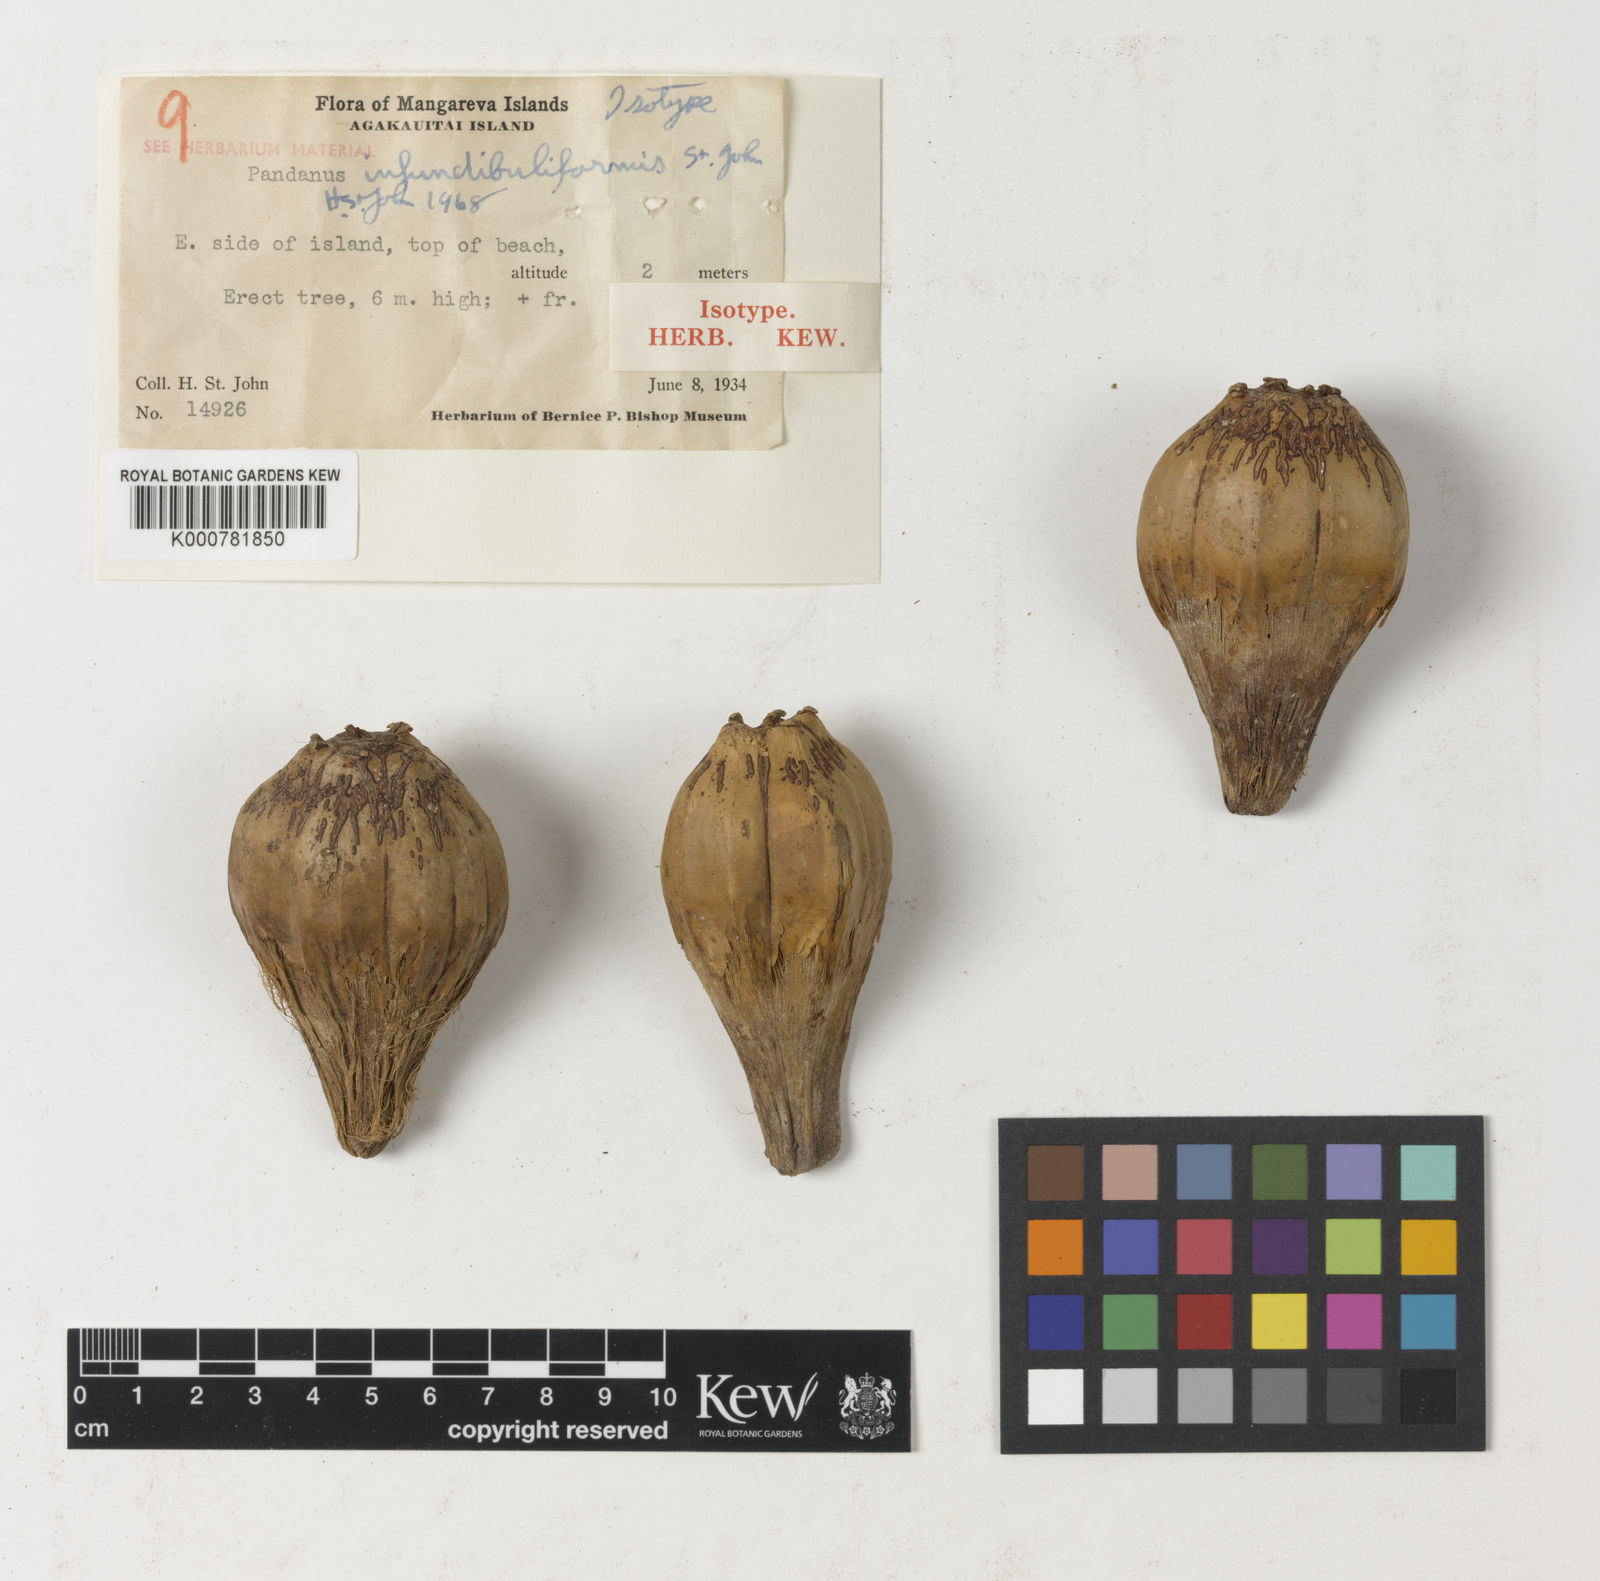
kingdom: Plantae
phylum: Tracheophyta
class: Liliopsida
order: Pandanales
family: Pandanaceae
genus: Pandanus
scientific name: Pandanus tectorius
